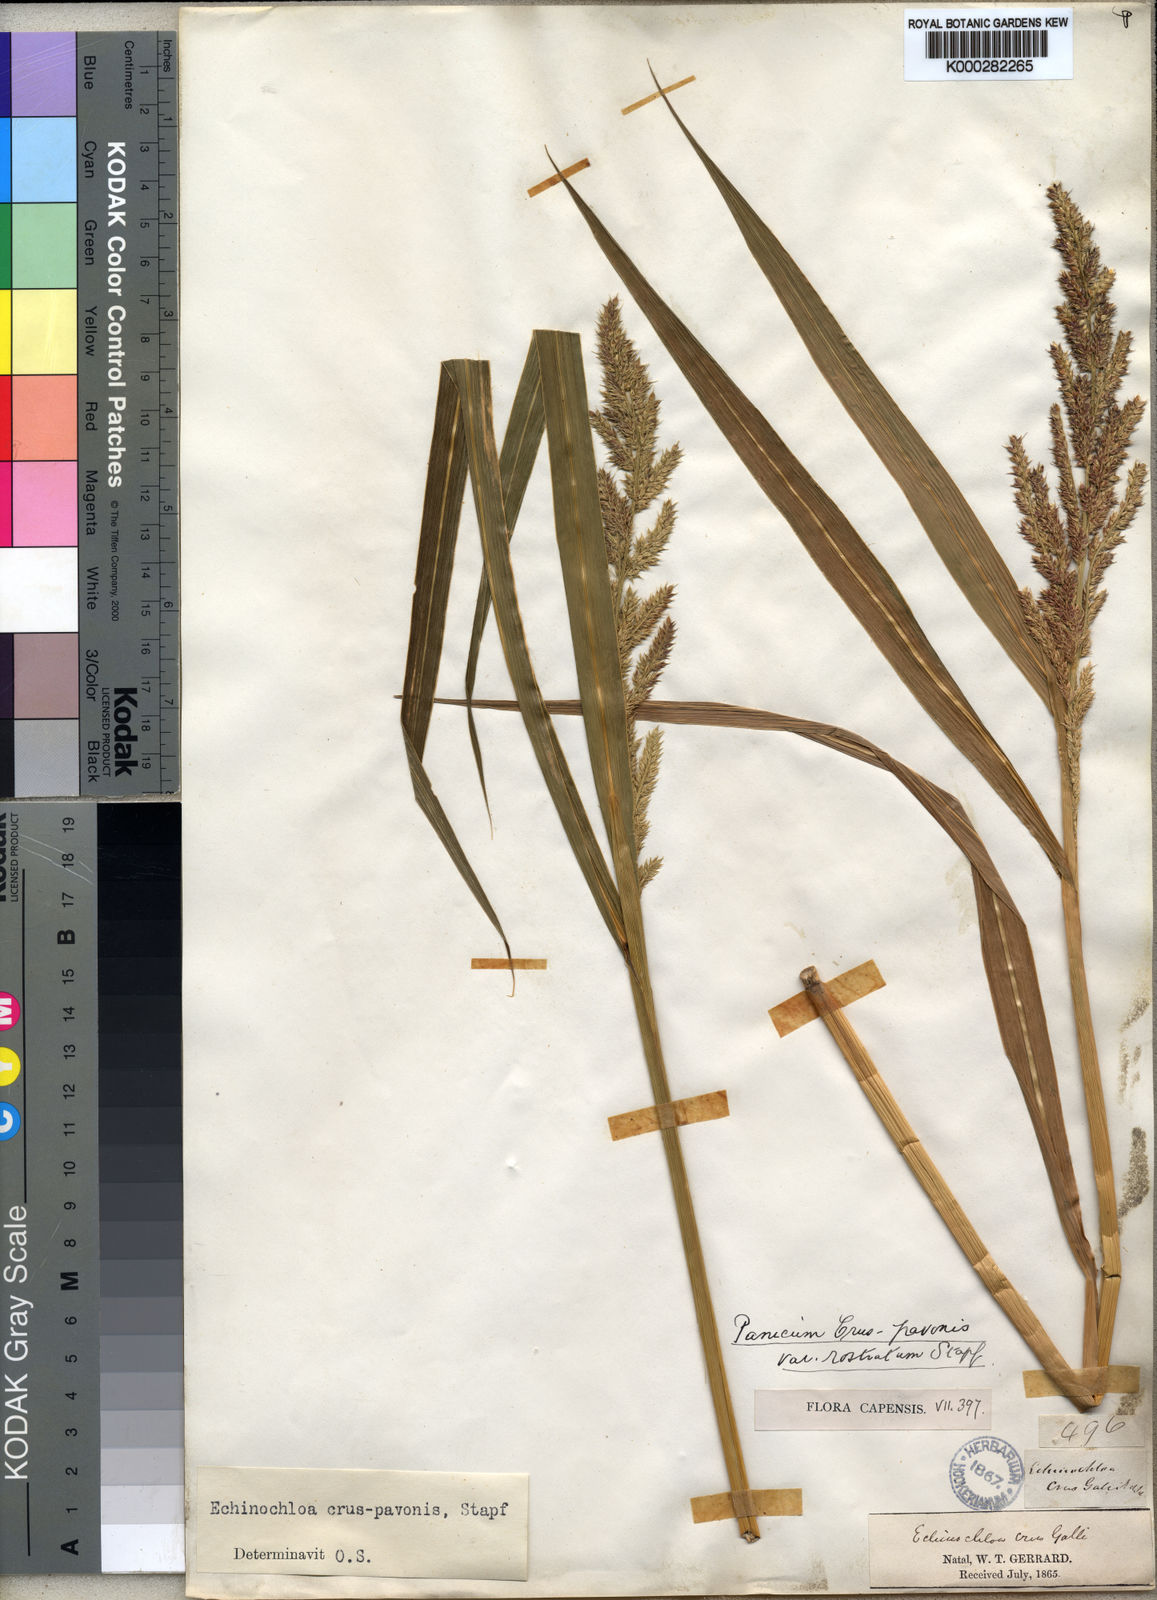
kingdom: Plantae
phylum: Tracheophyta
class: Liliopsida
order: Poales
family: Poaceae
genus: Echinochloa
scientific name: Echinochloa crus-pavonis
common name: Gulf cockspur grass
